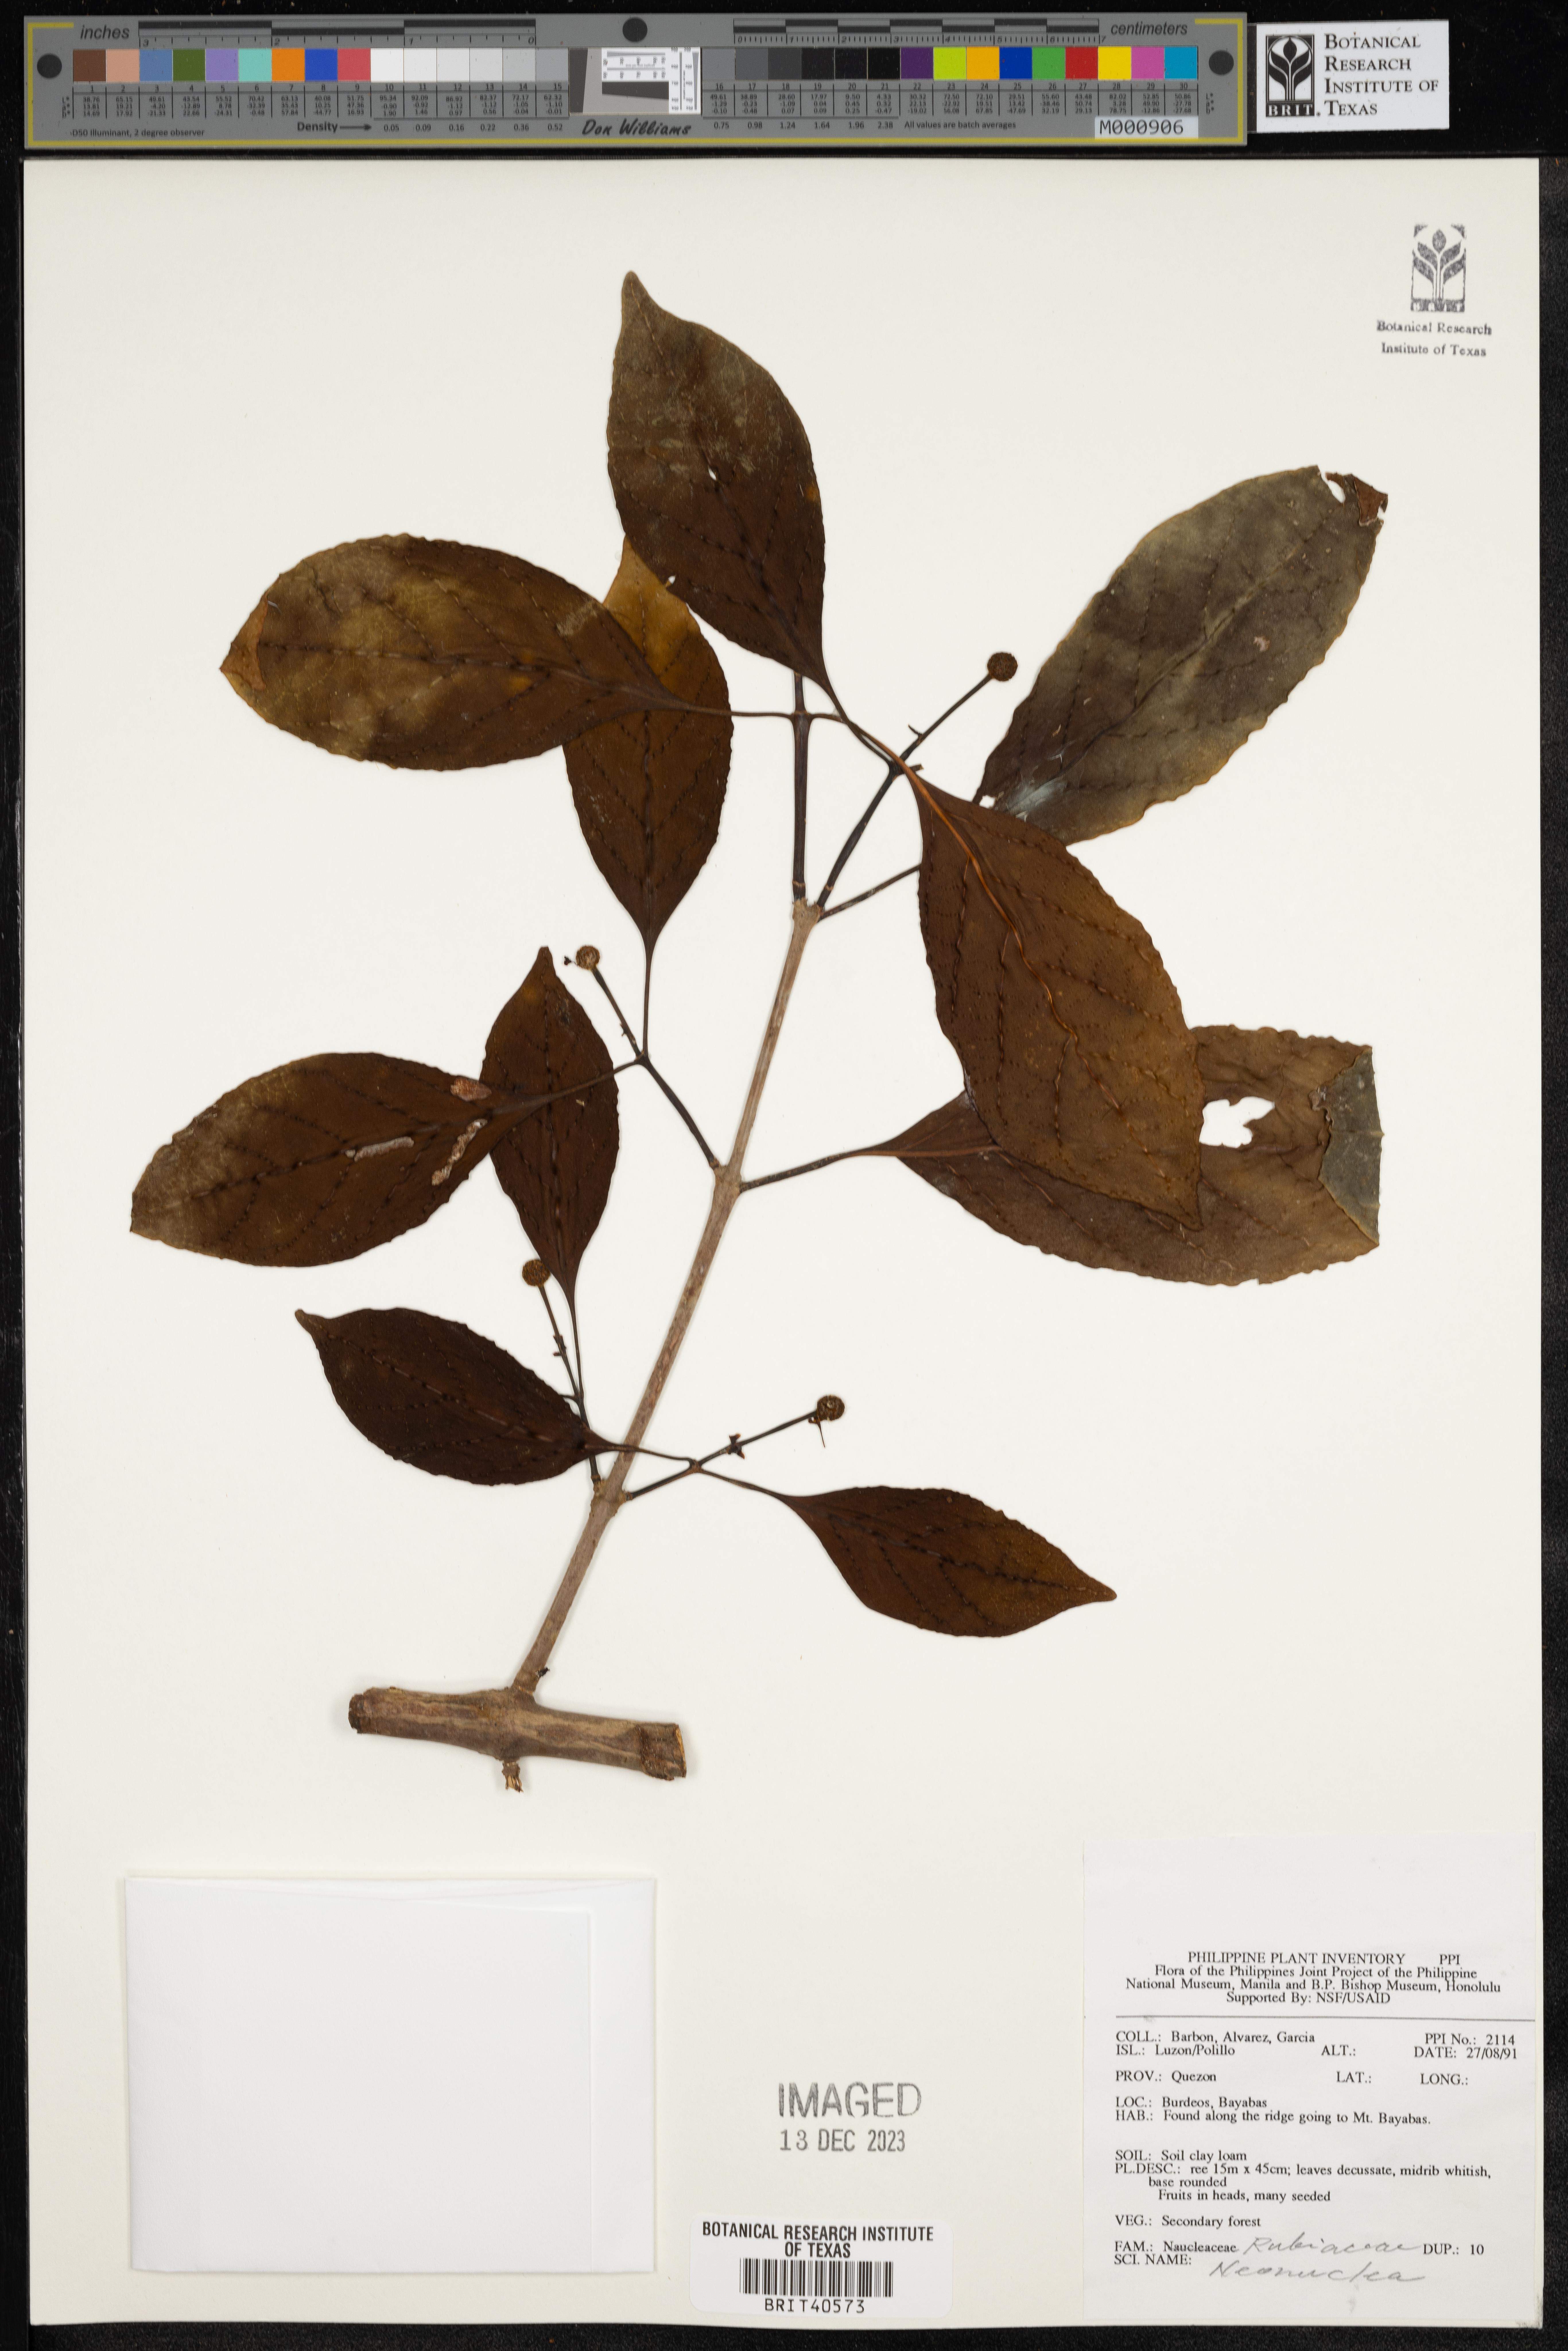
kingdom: Plantae
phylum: Tracheophyta
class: Magnoliopsida
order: Gentianales
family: Rubiaceae
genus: Neonauclea
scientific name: Neonauclea
